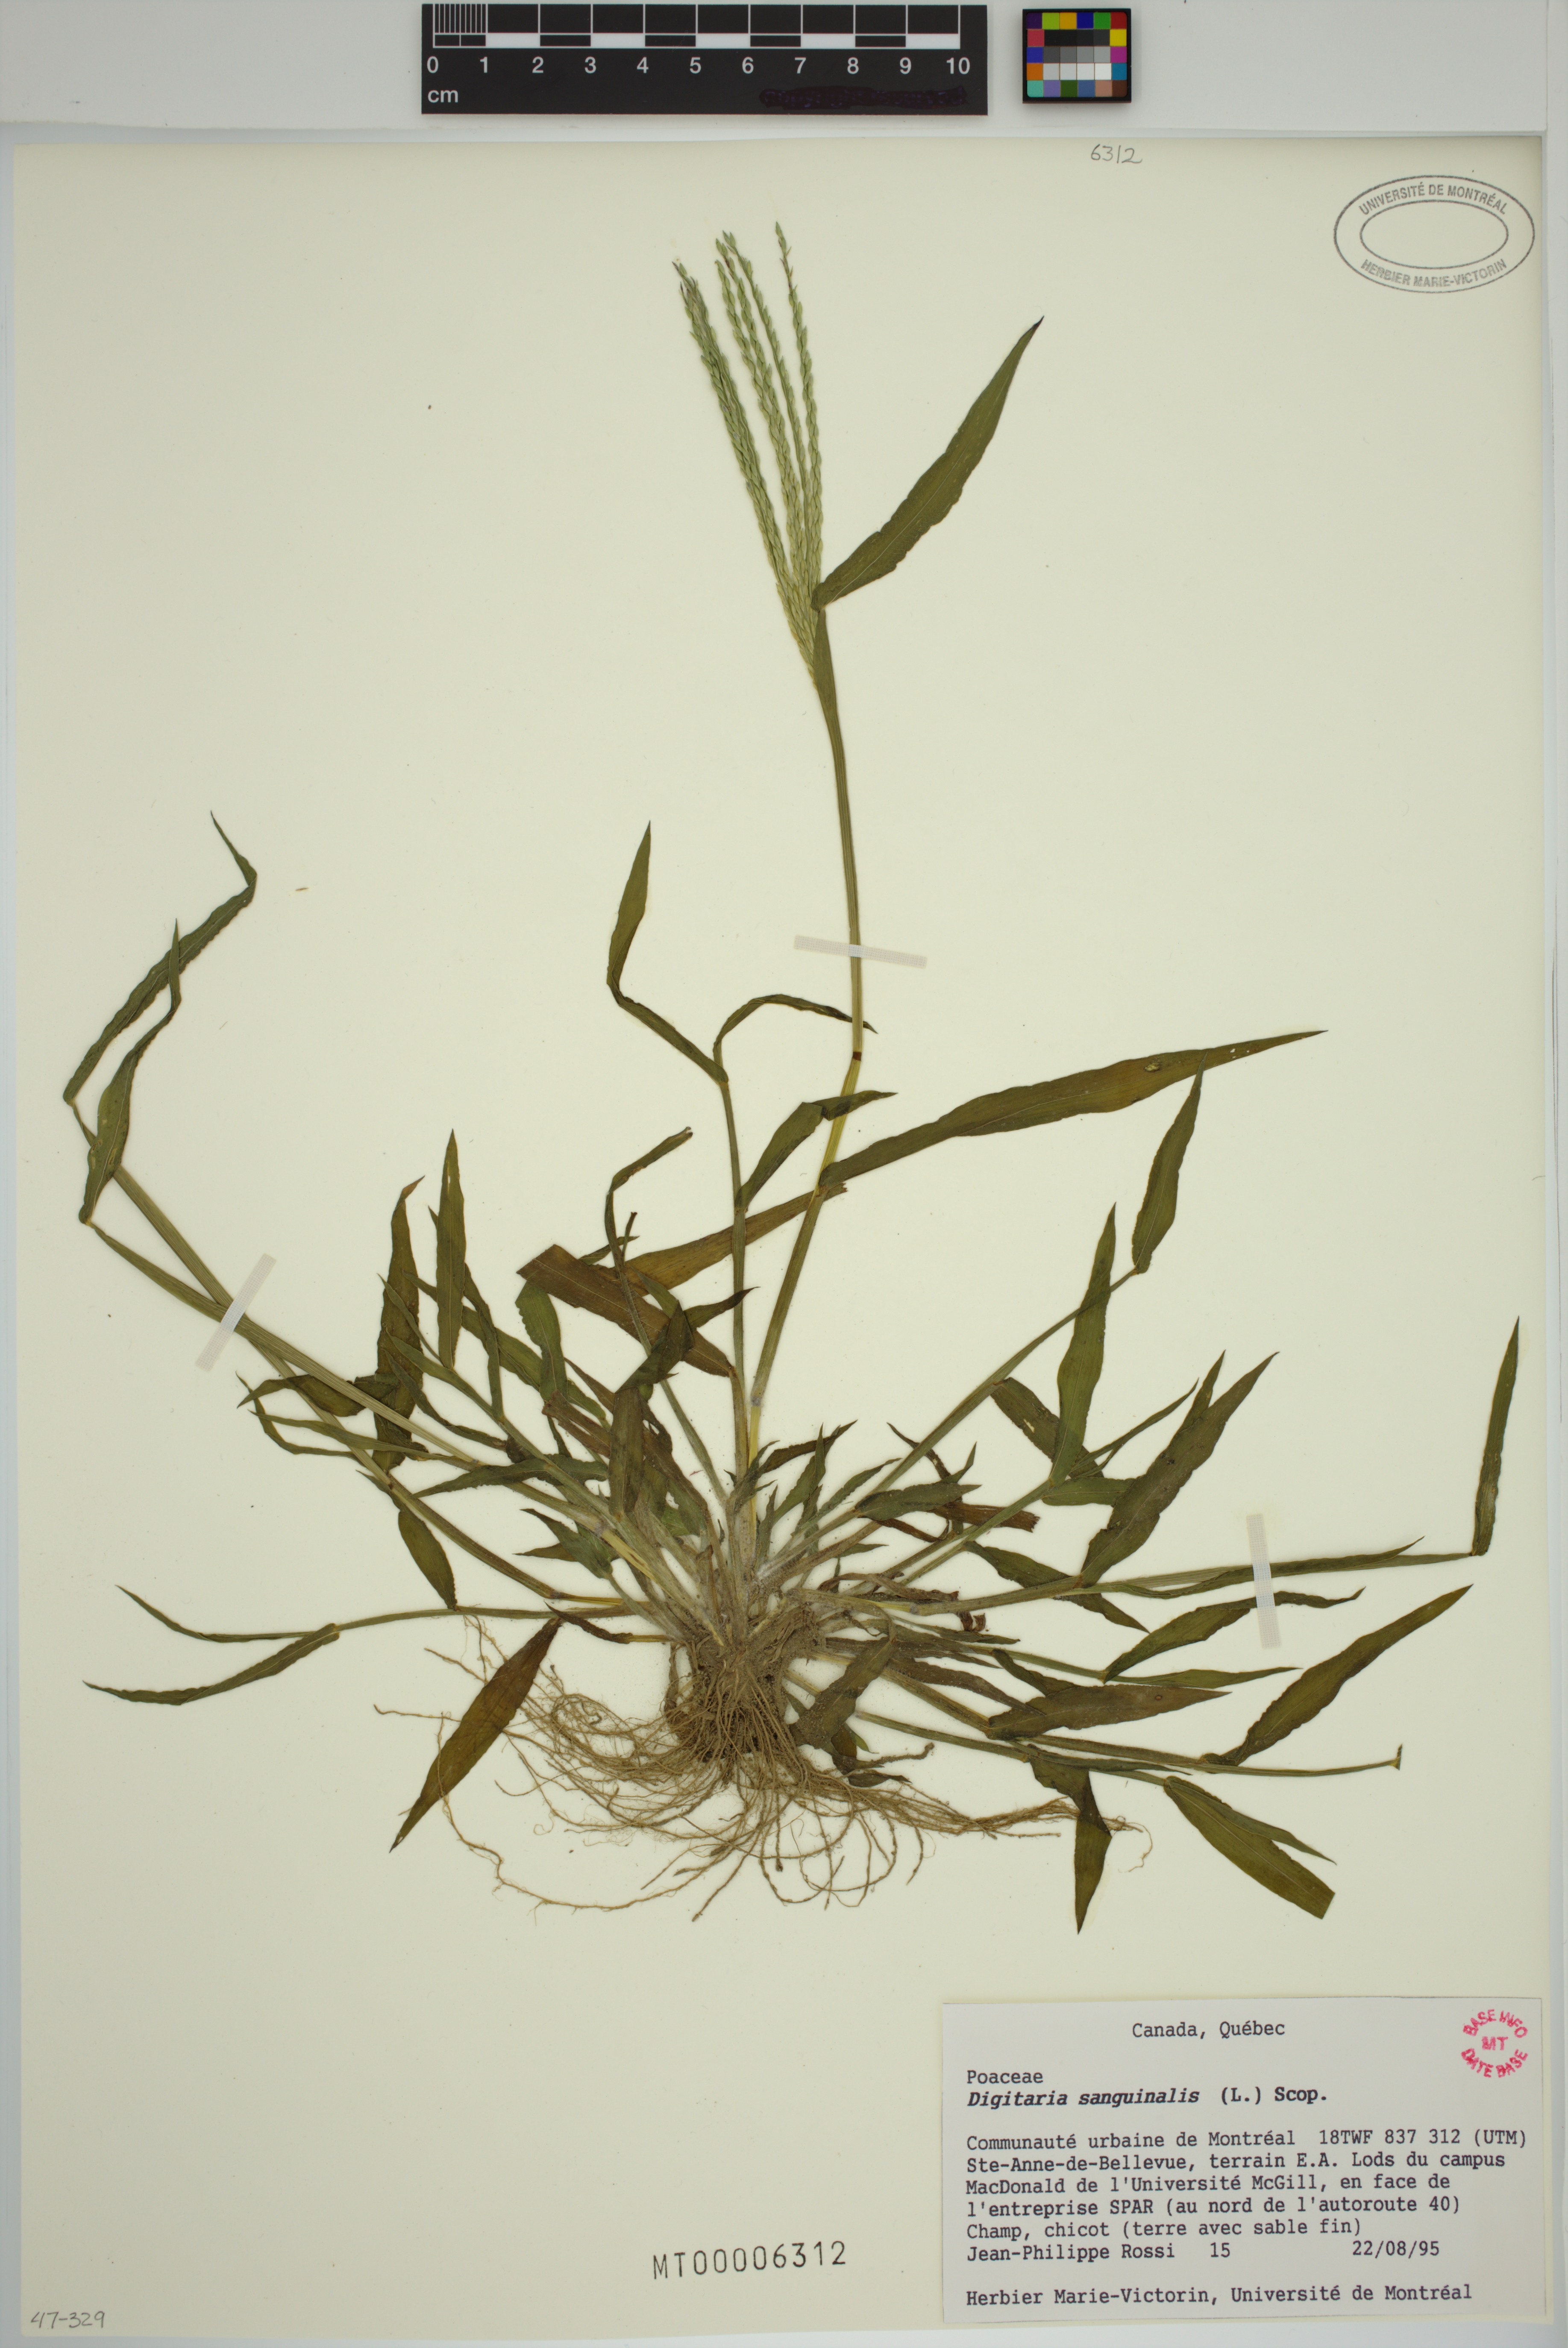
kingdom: Plantae
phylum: Tracheophyta
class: Liliopsida
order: Poales
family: Poaceae
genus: Digitaria
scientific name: Digitaria sanguinalis
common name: Hairy crabgrass
